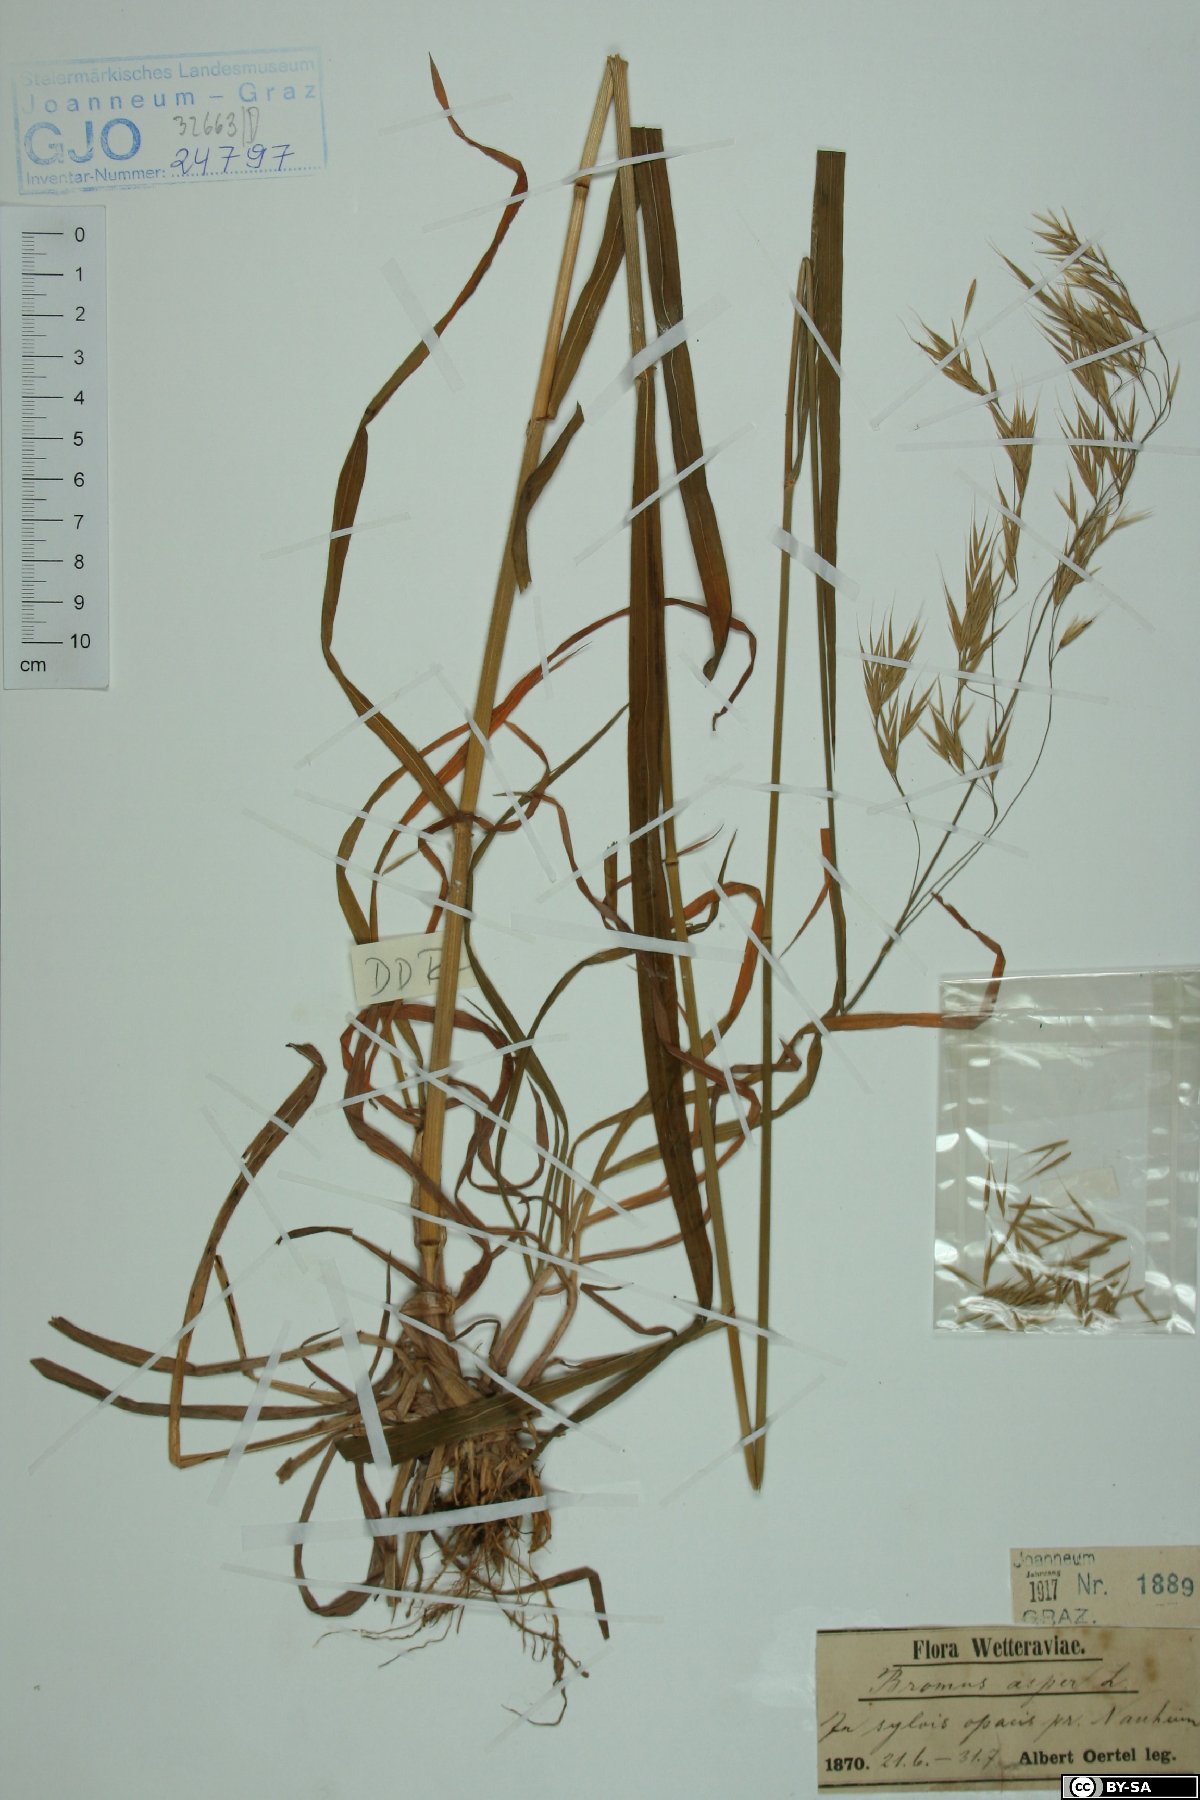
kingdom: Plantae
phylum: Tracheophyta
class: Liliopsida
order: Poales
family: Poaceae
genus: Bromus
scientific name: Bromus ramosus
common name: Hairy brome
